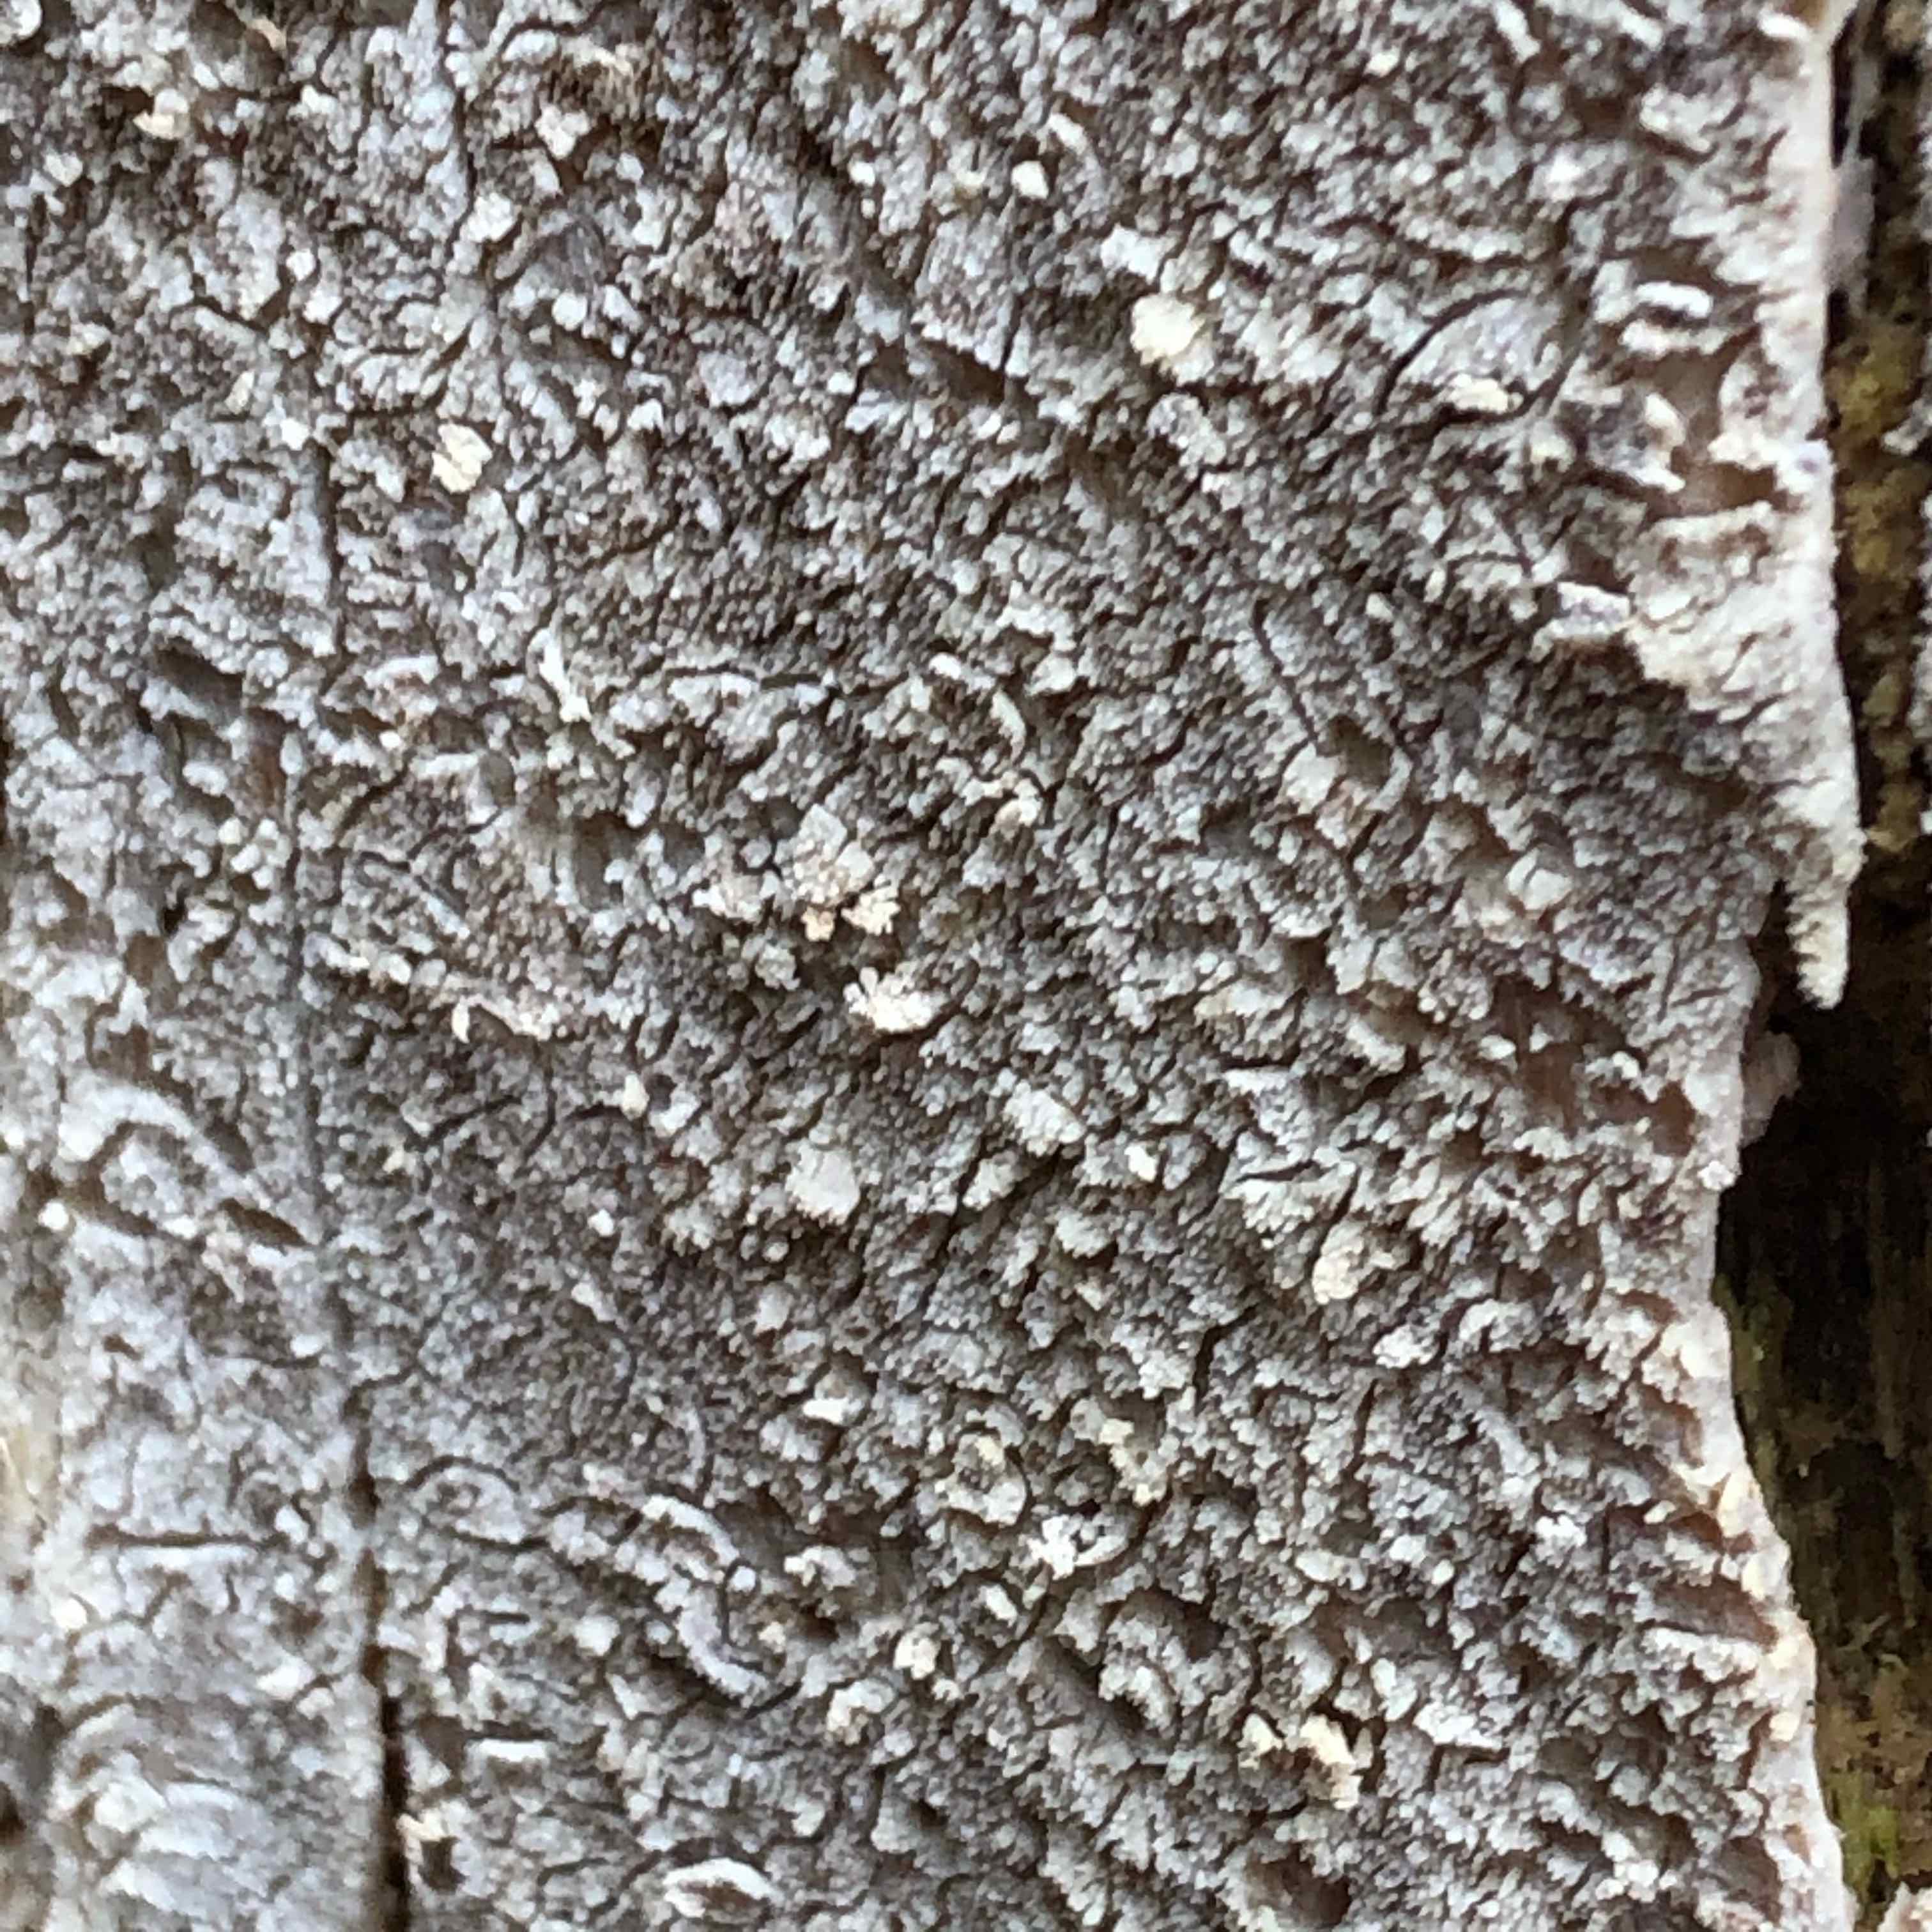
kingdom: Fungi
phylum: Basidiomycota
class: Agaricomycetes
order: Corticiales
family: Corticiaceae
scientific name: Corticiaceae
